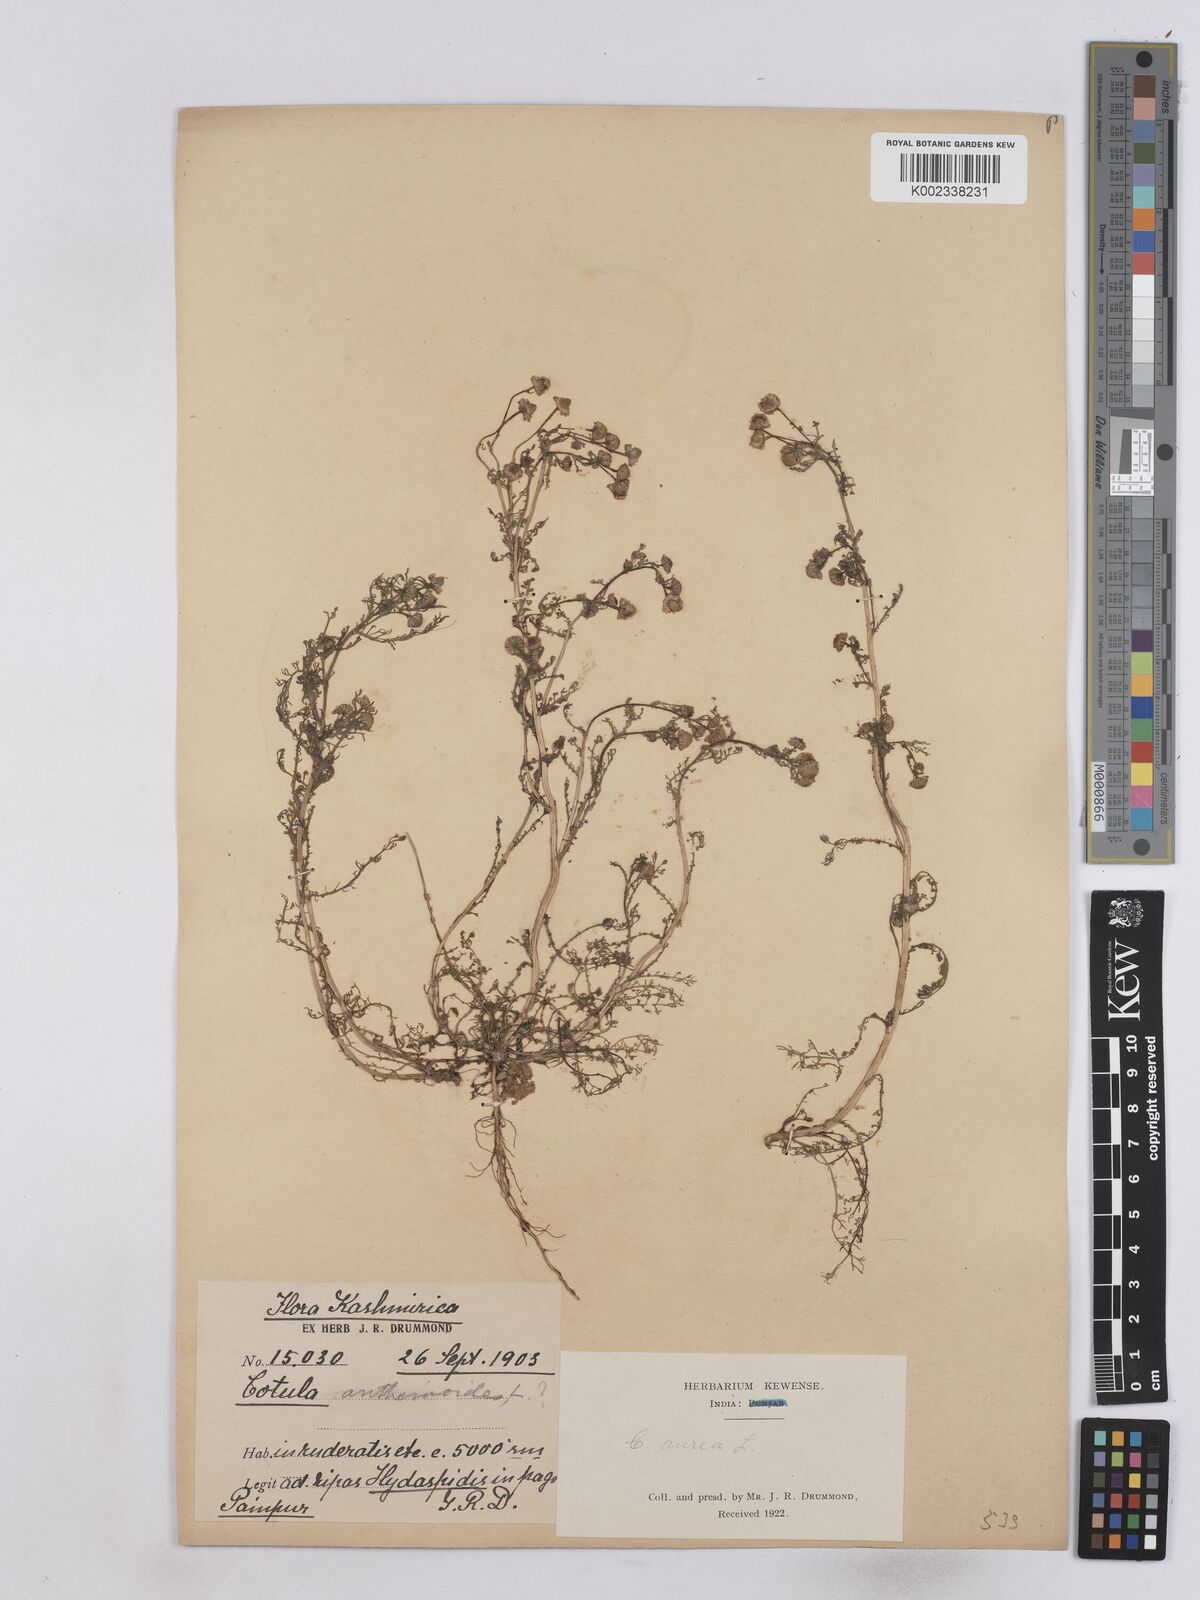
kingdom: Plantae
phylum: Tracheophyta
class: Magnoliopsida
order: Asterales
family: Asteraceae
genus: Matricaria
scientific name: Matricaria aurea
